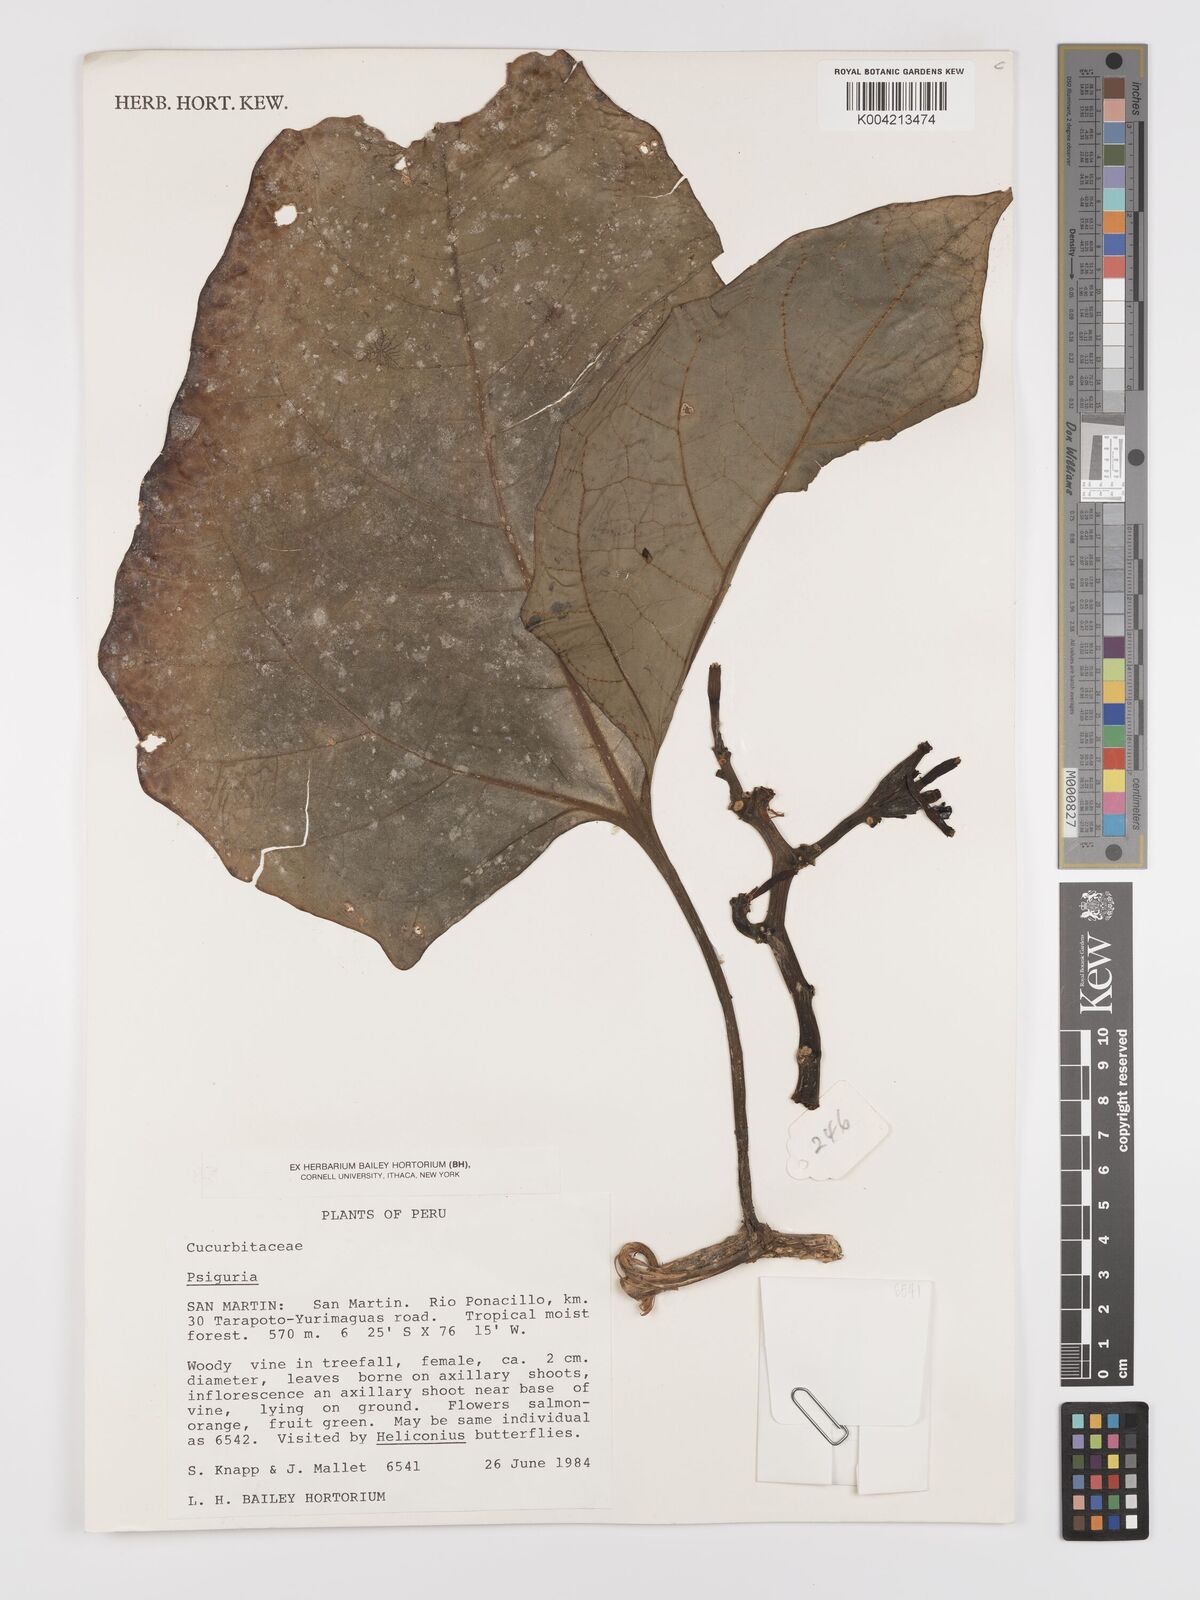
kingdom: Plantae
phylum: Tracheophyta
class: Magnoliopsida
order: Cucurbitales
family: Cucurbitaceae
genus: Psiguria
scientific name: Psiguria triphylla
